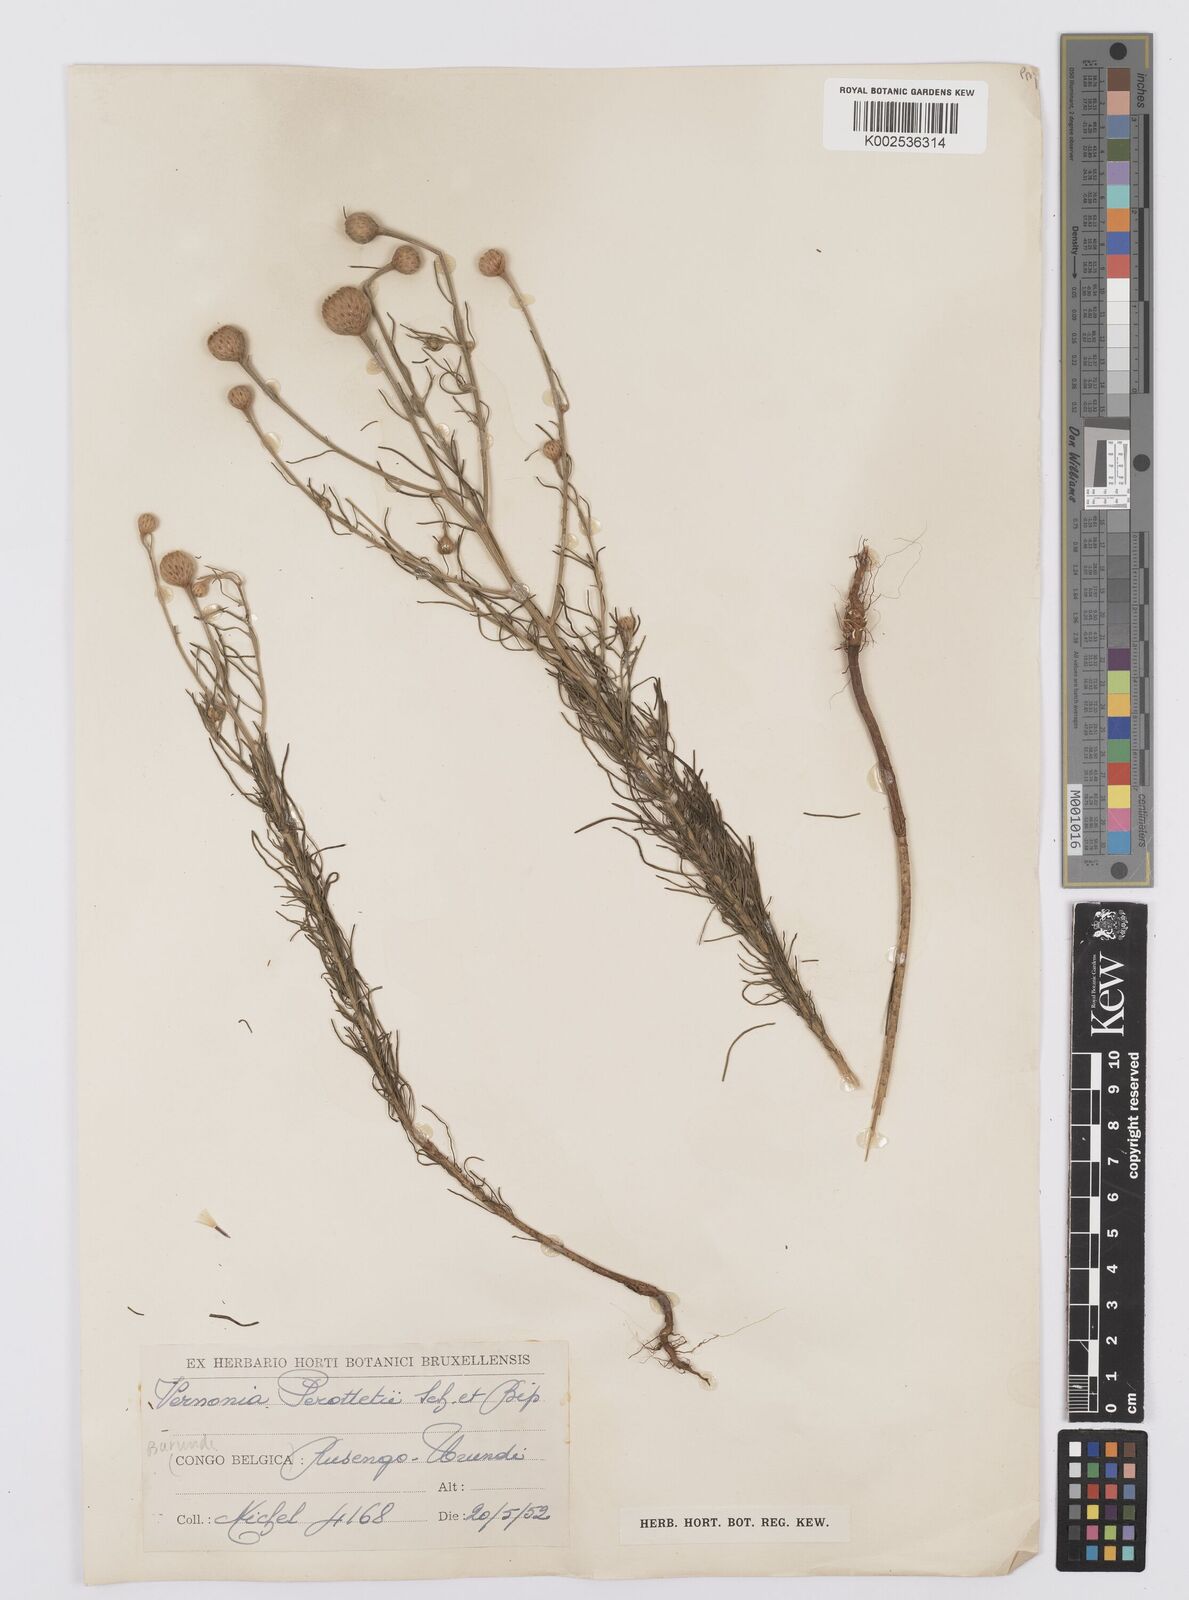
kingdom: Plantae
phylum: Tracheophyta
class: Magnoliopsida
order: Asterales
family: Asteraceae
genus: Crystallopollen
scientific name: Crystallopollen serratuloides
